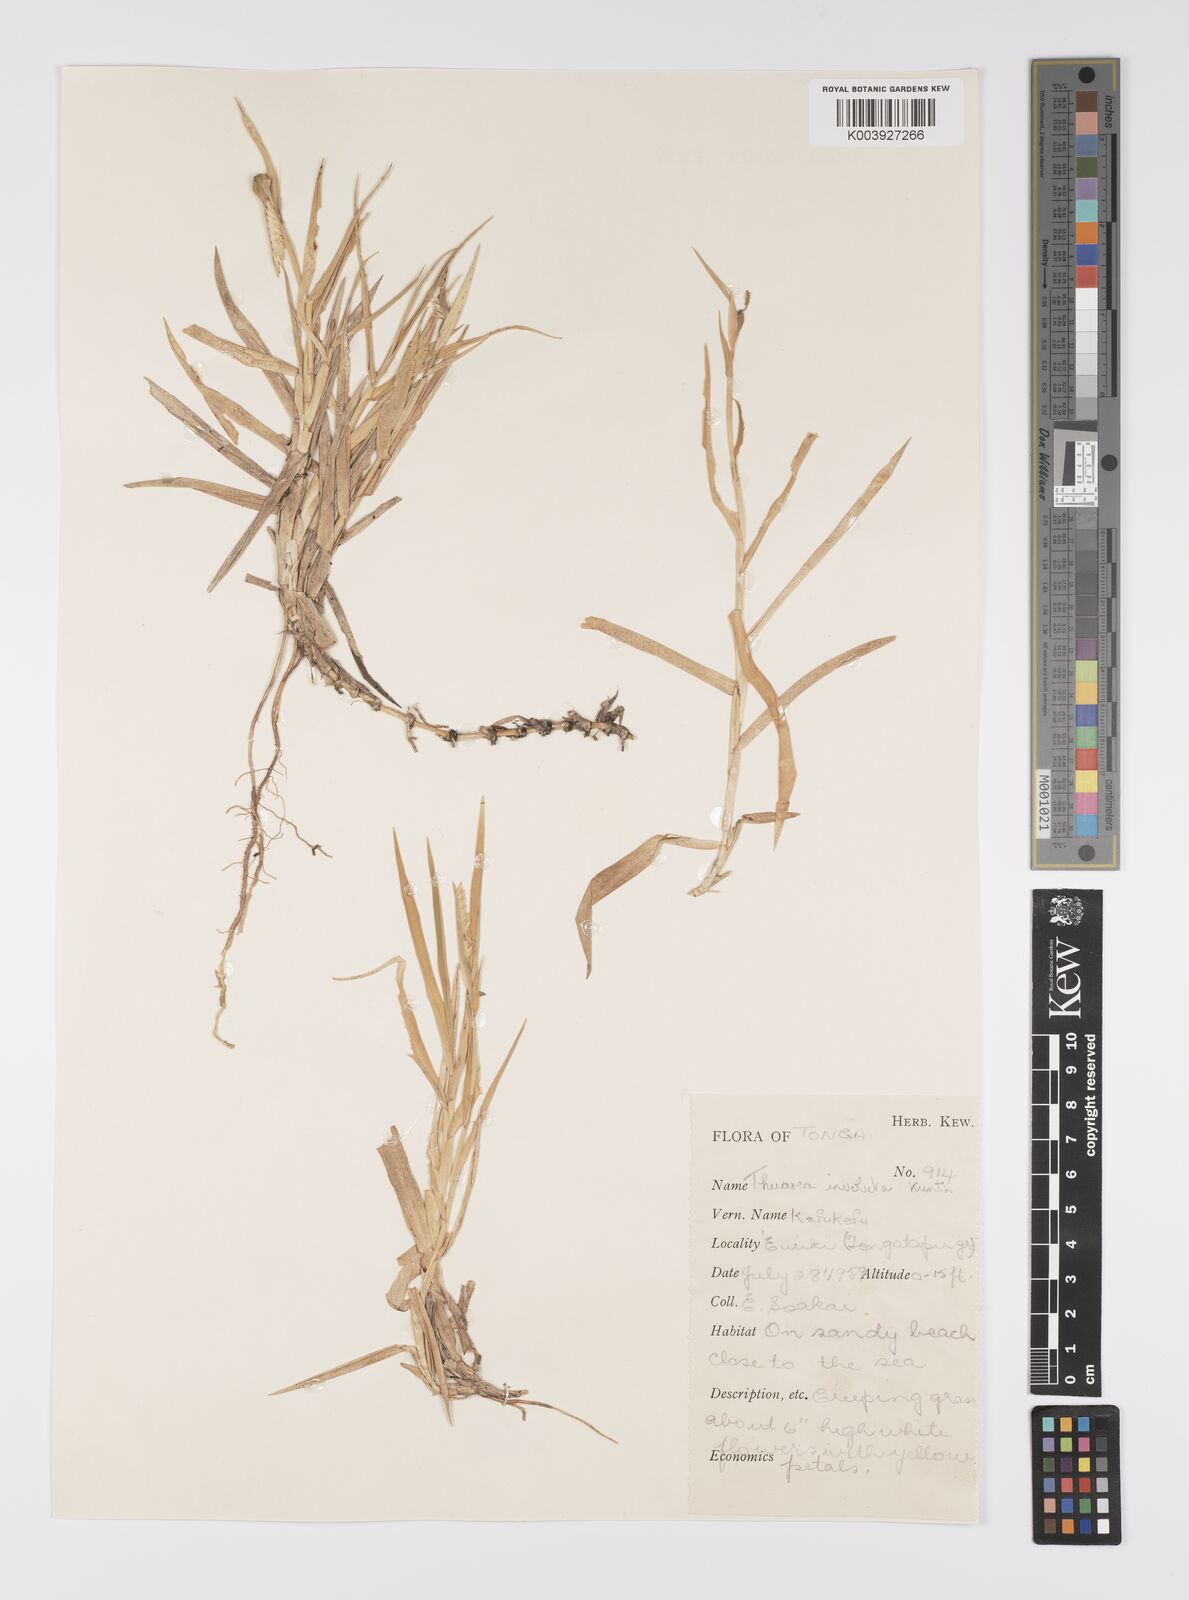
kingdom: Plantae
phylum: Tracheophyta
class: Liliopsida
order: Poales
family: Poaceae
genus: Thuarea
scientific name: Thuarea involuta
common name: Tropical beach grass
